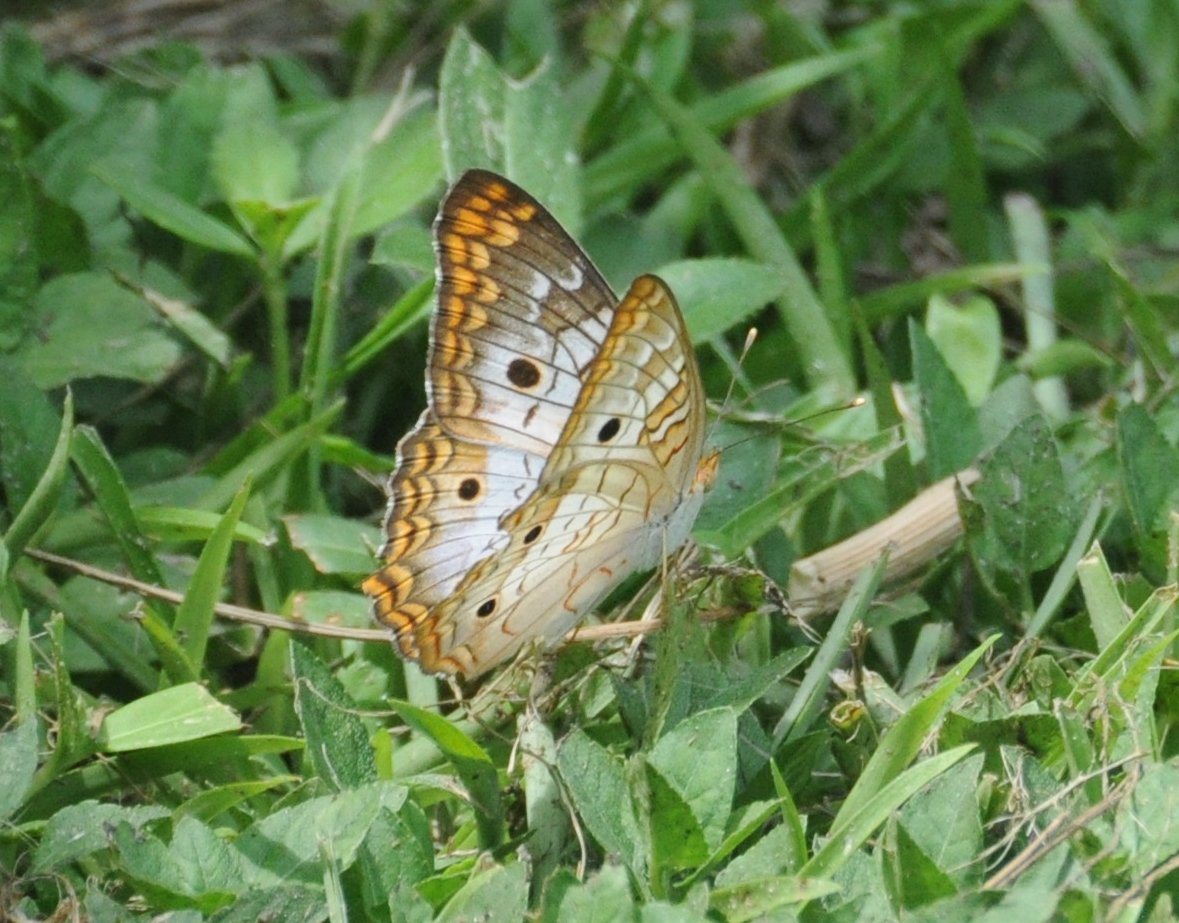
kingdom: Animalia
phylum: Arthropoda
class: Insecta
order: Lepidoptera
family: Nymphalidae
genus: Anartia
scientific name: Anartia jatrophae
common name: White Peacock
